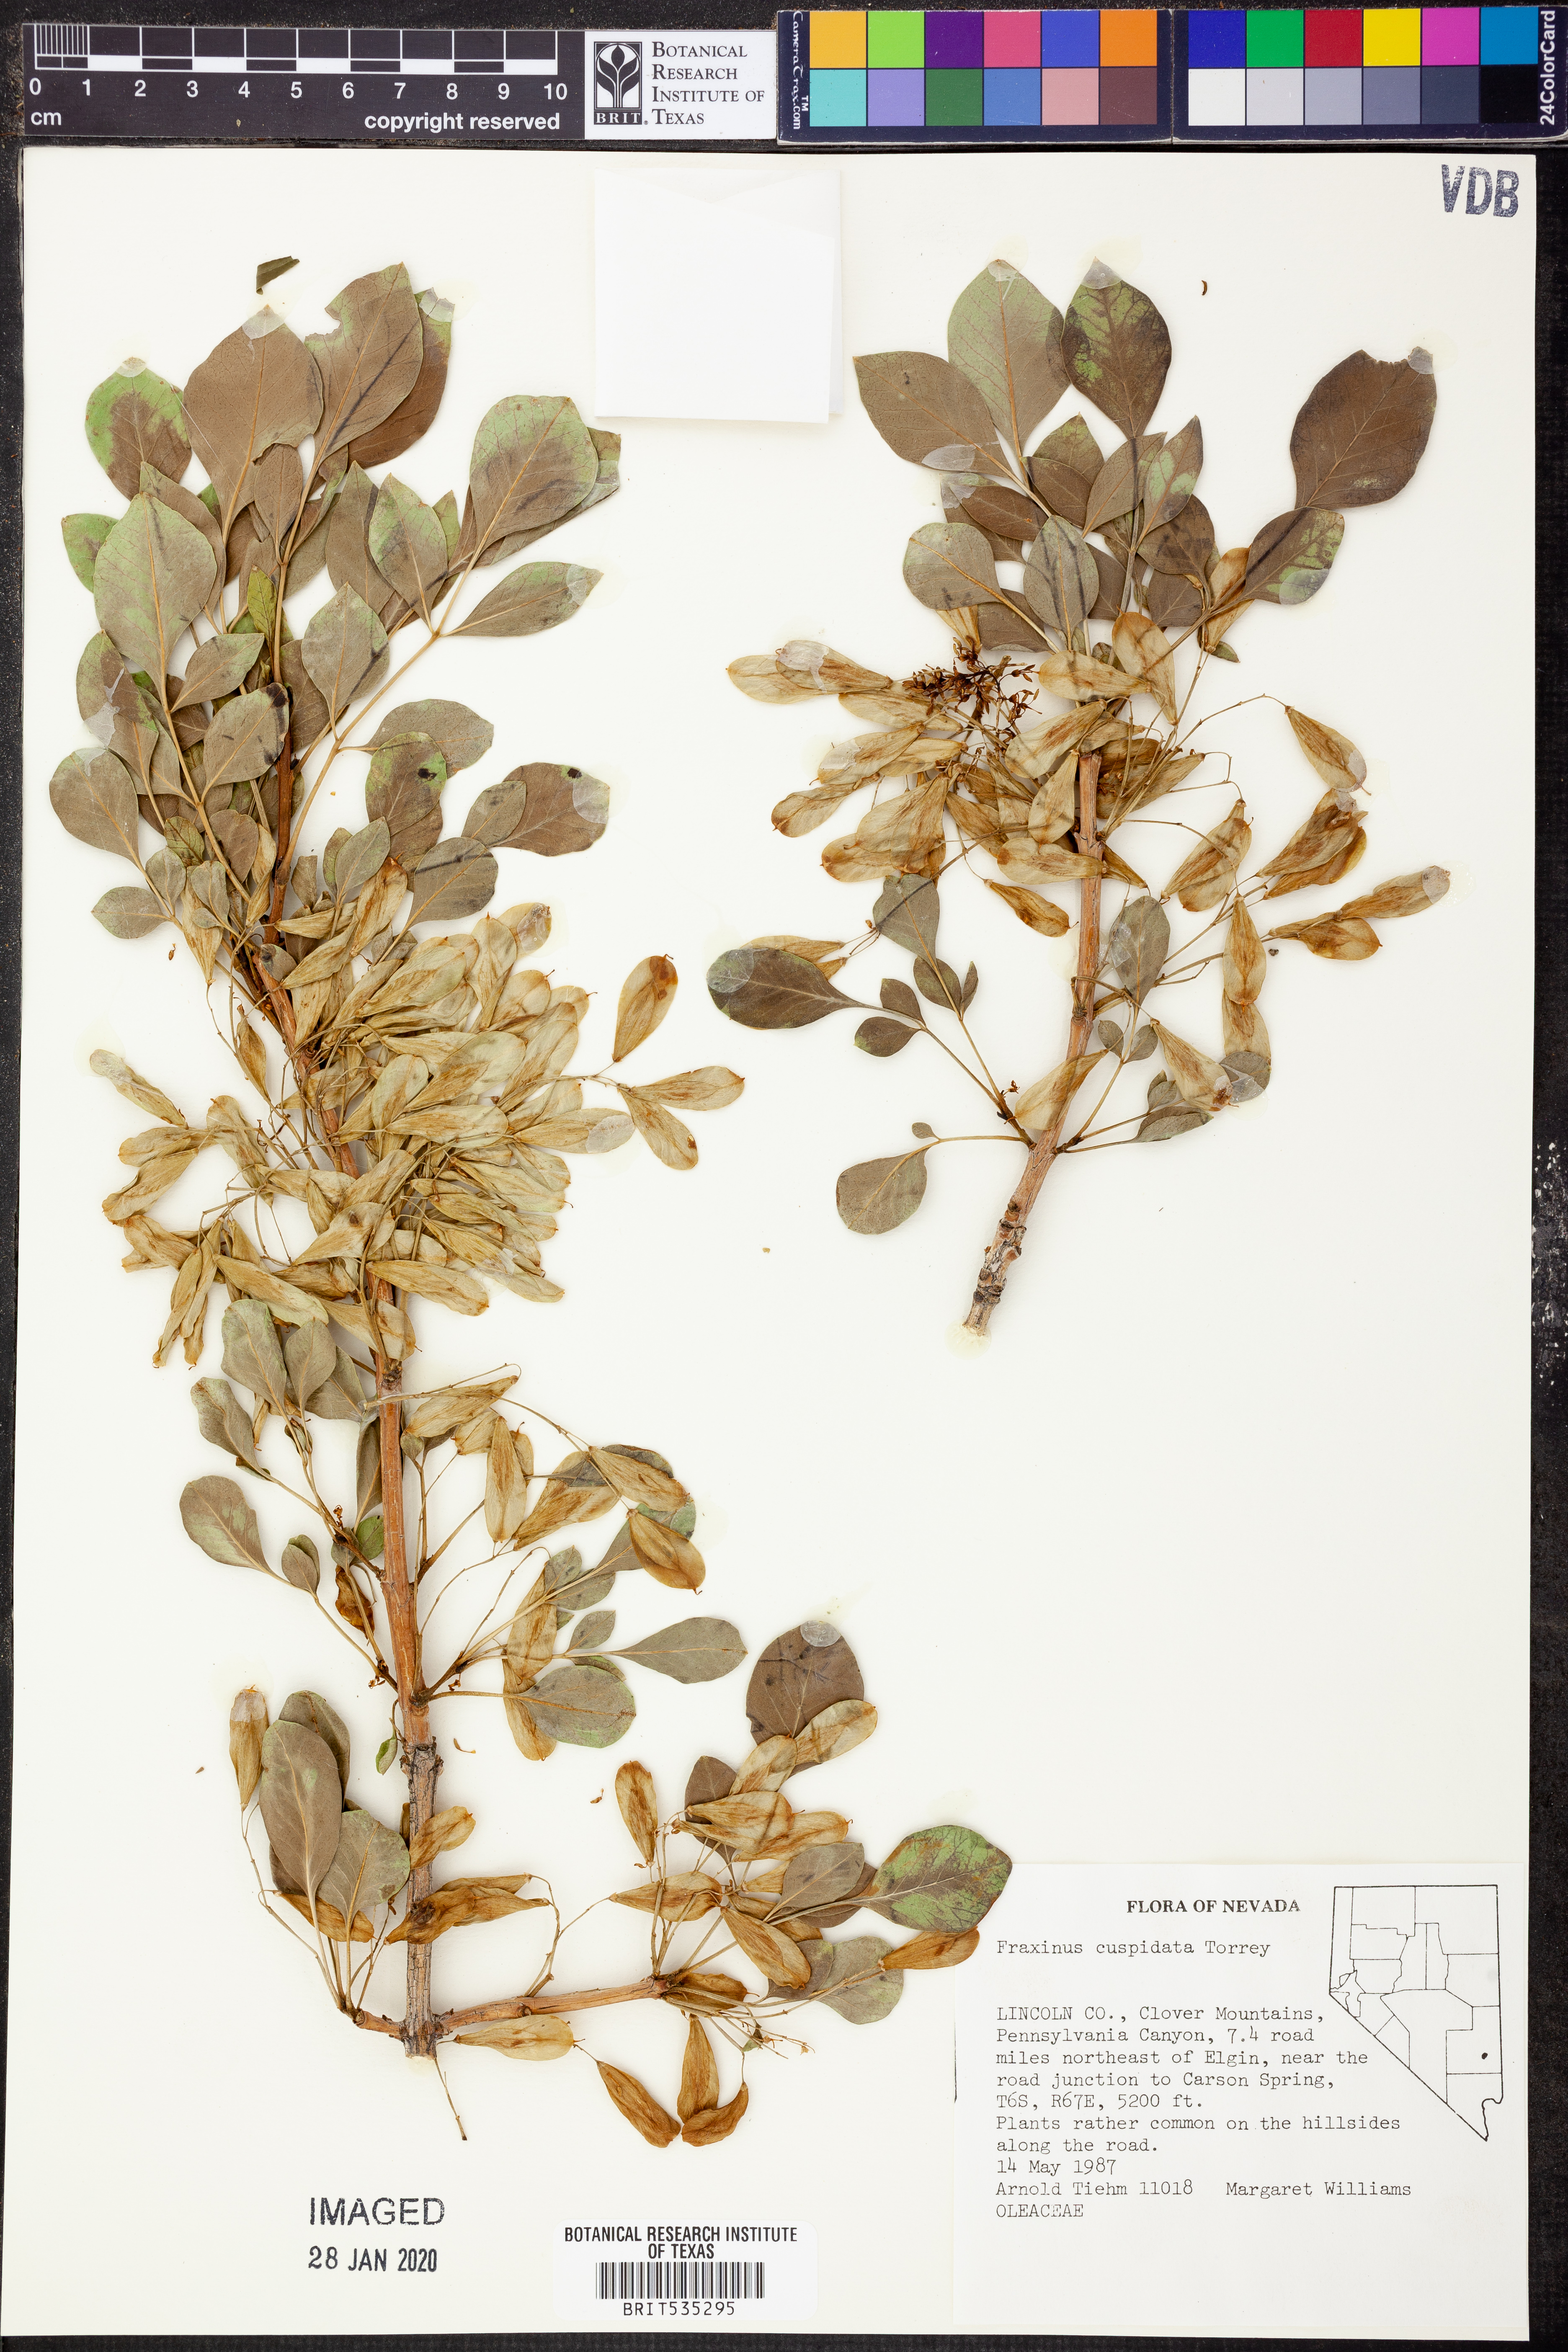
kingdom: Plantae
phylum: Tracheophyta
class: Magnoliopsida
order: Lamiales
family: Oleaceae
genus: Fraxinus
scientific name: Fraxinus cuspidata
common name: Fragrant ash
